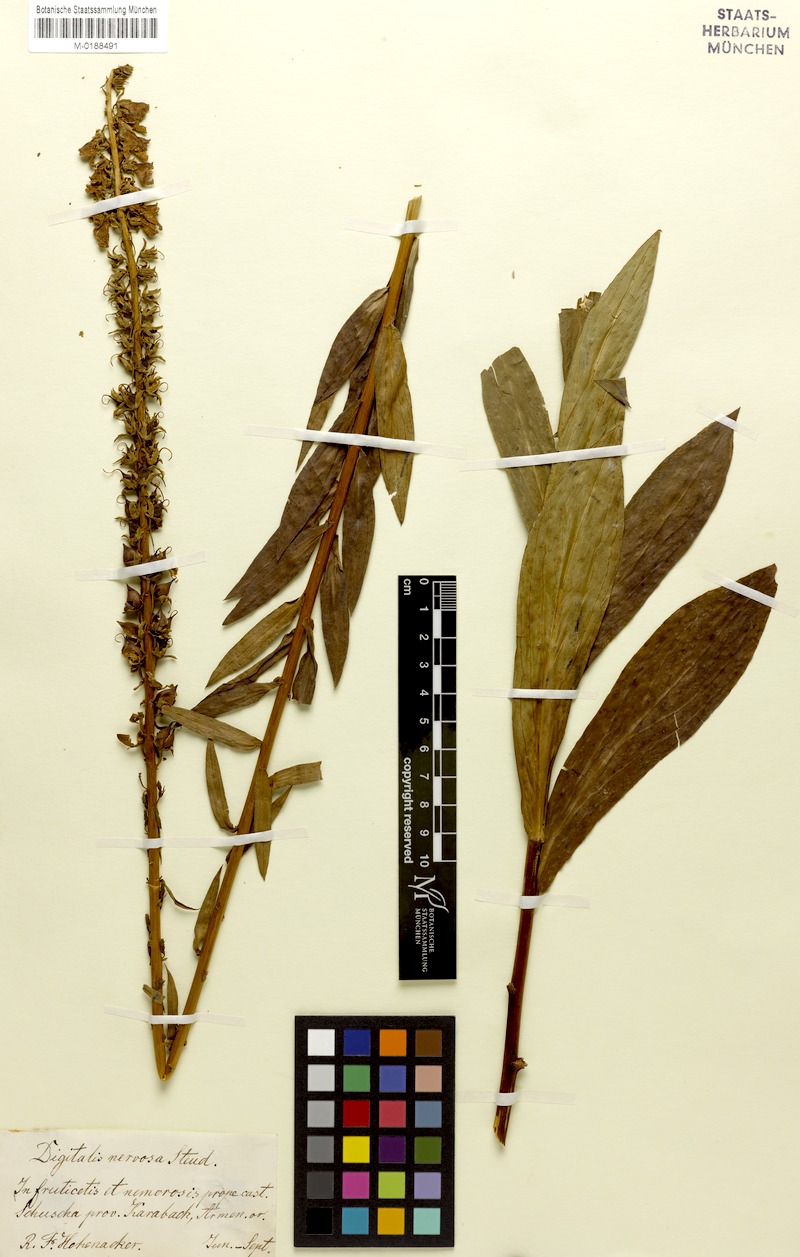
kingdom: Plantae
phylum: Tracheophyta
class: Magnoliopsida
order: Lamiales
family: Plantaginaceae
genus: Digitalis
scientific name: Digitalis nervosa
